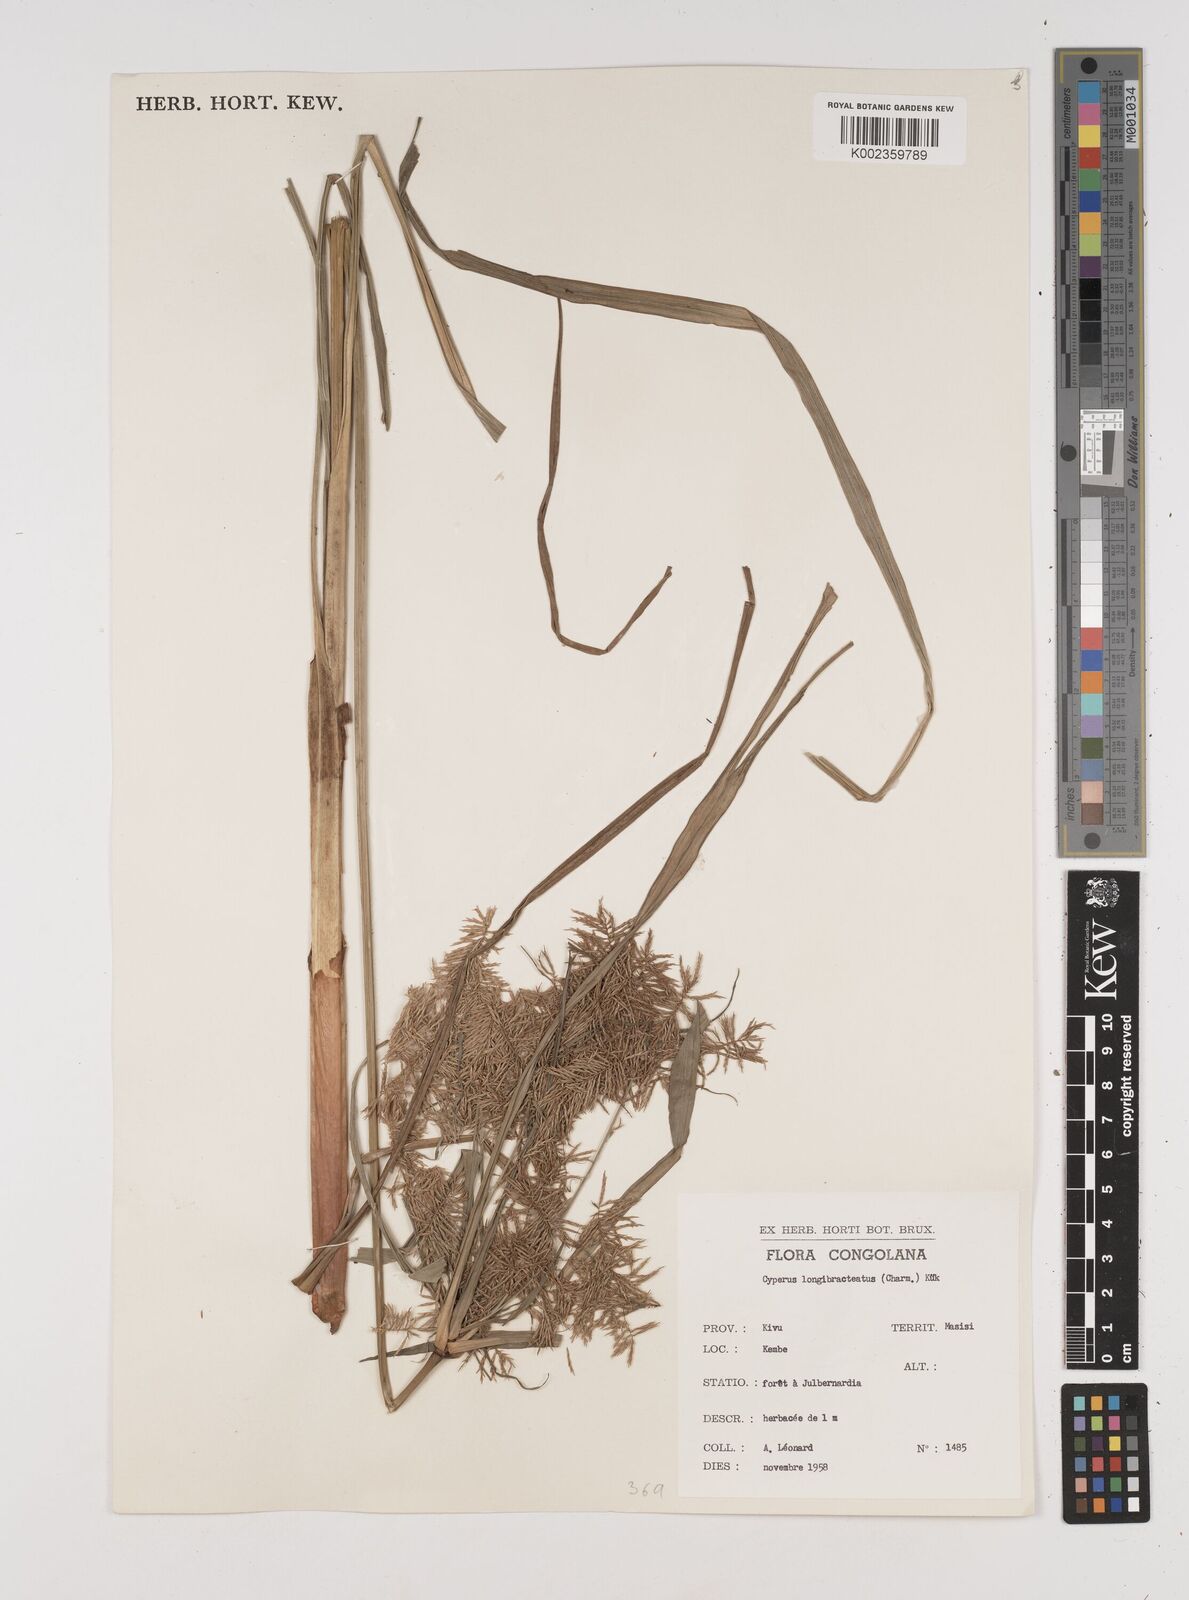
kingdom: Plantae
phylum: Tracheophyta
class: Liliopsida
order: Poales
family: Cyperaceae
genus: Cyperus
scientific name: Cyperus distans
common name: Slender cyperus
